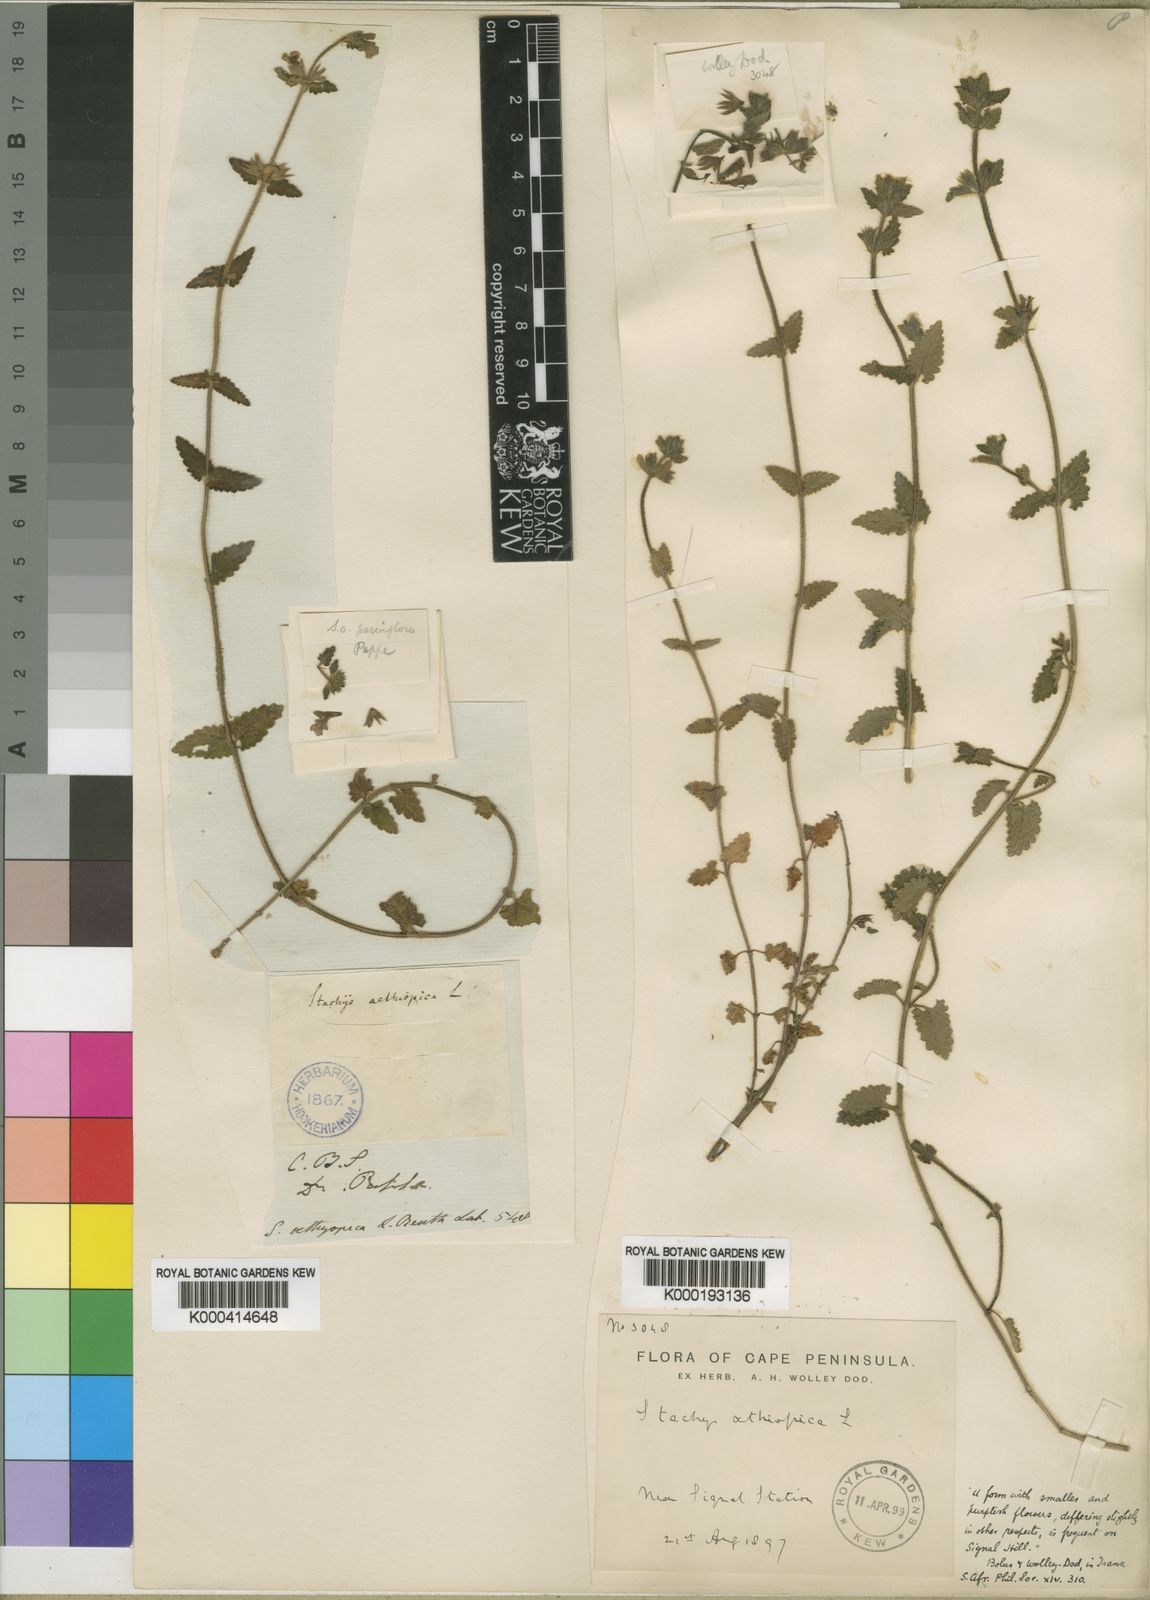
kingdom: Plantae
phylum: Tracheophyta
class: Magnoliopsida
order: Lamiales
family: Lamiaceae
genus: Stachys
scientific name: Stachys aethiopica
